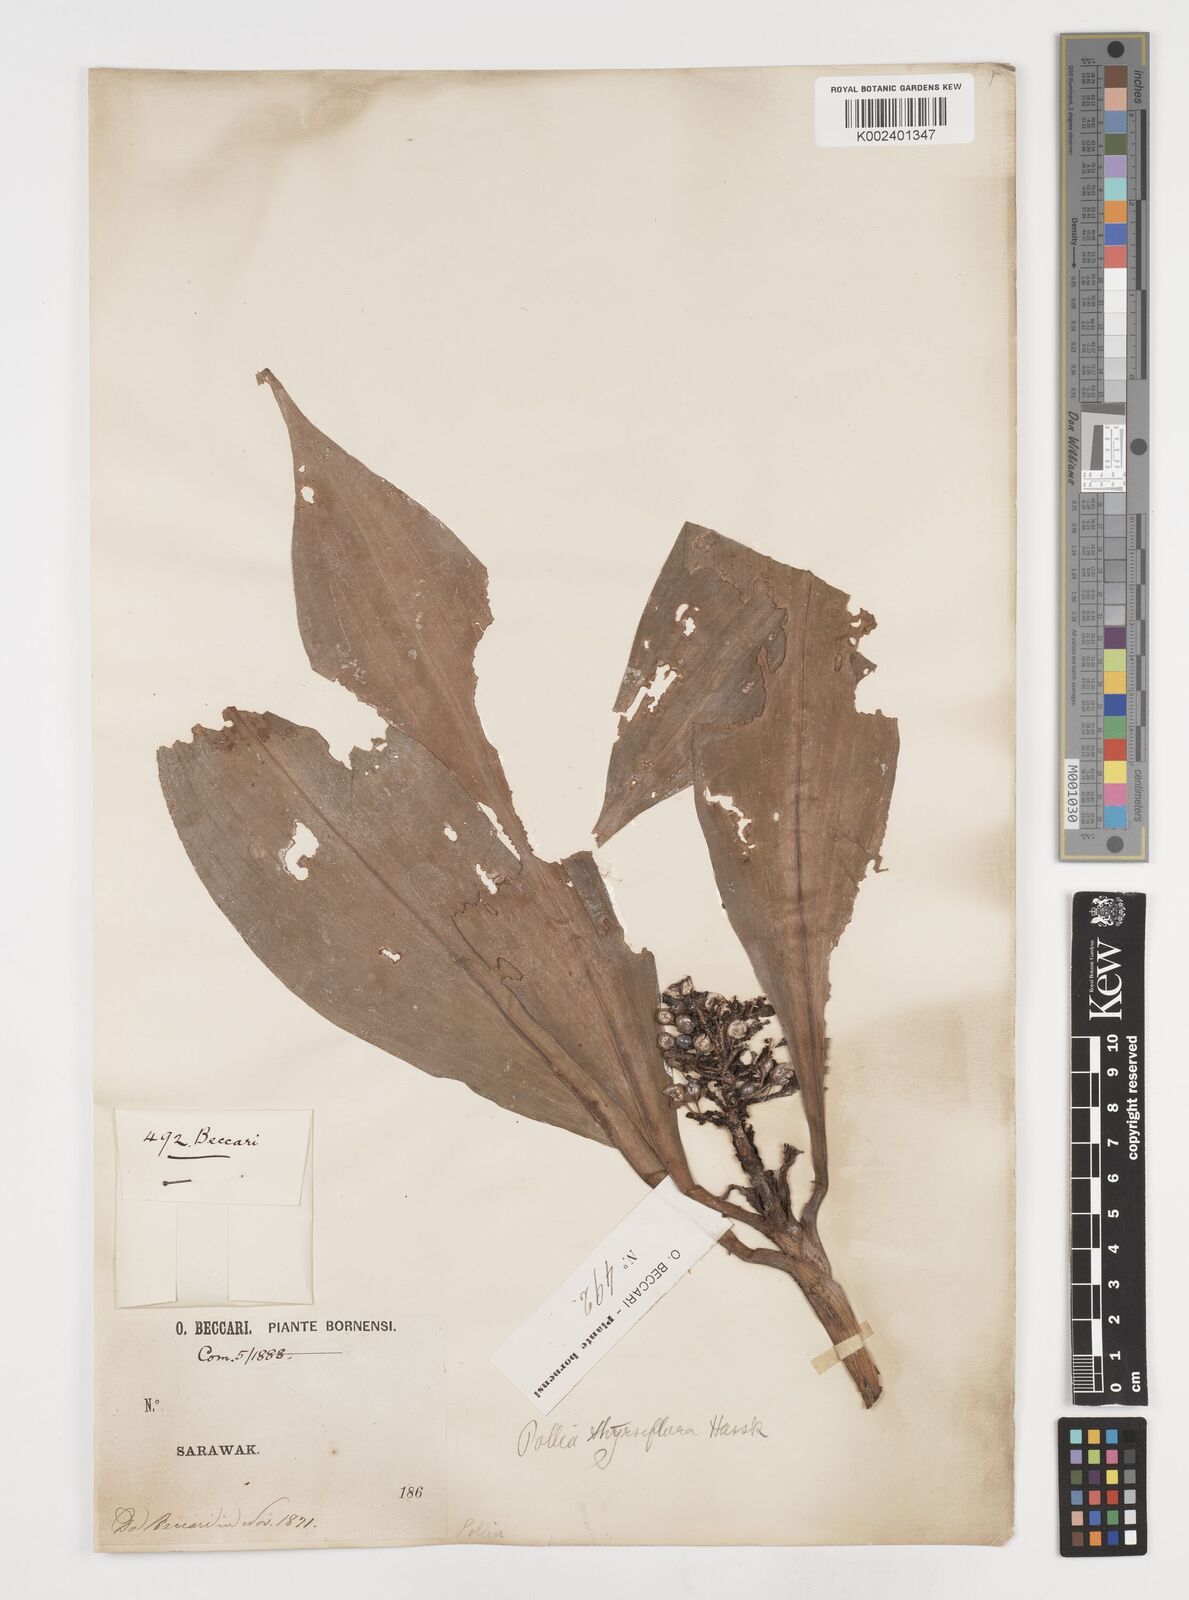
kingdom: Plantae
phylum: Tracheophyta
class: Liliopsida
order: Commelinales
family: Commelinaceae
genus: Pollia
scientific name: Pollia thyrsiflora
